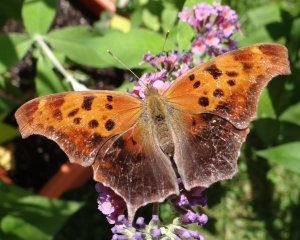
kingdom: Animalia
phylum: Arthropoda
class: Insecta
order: Lepidoptera
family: Nymphalidae
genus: Polygonia
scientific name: Polygonia interrogationis
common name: Question Mark
